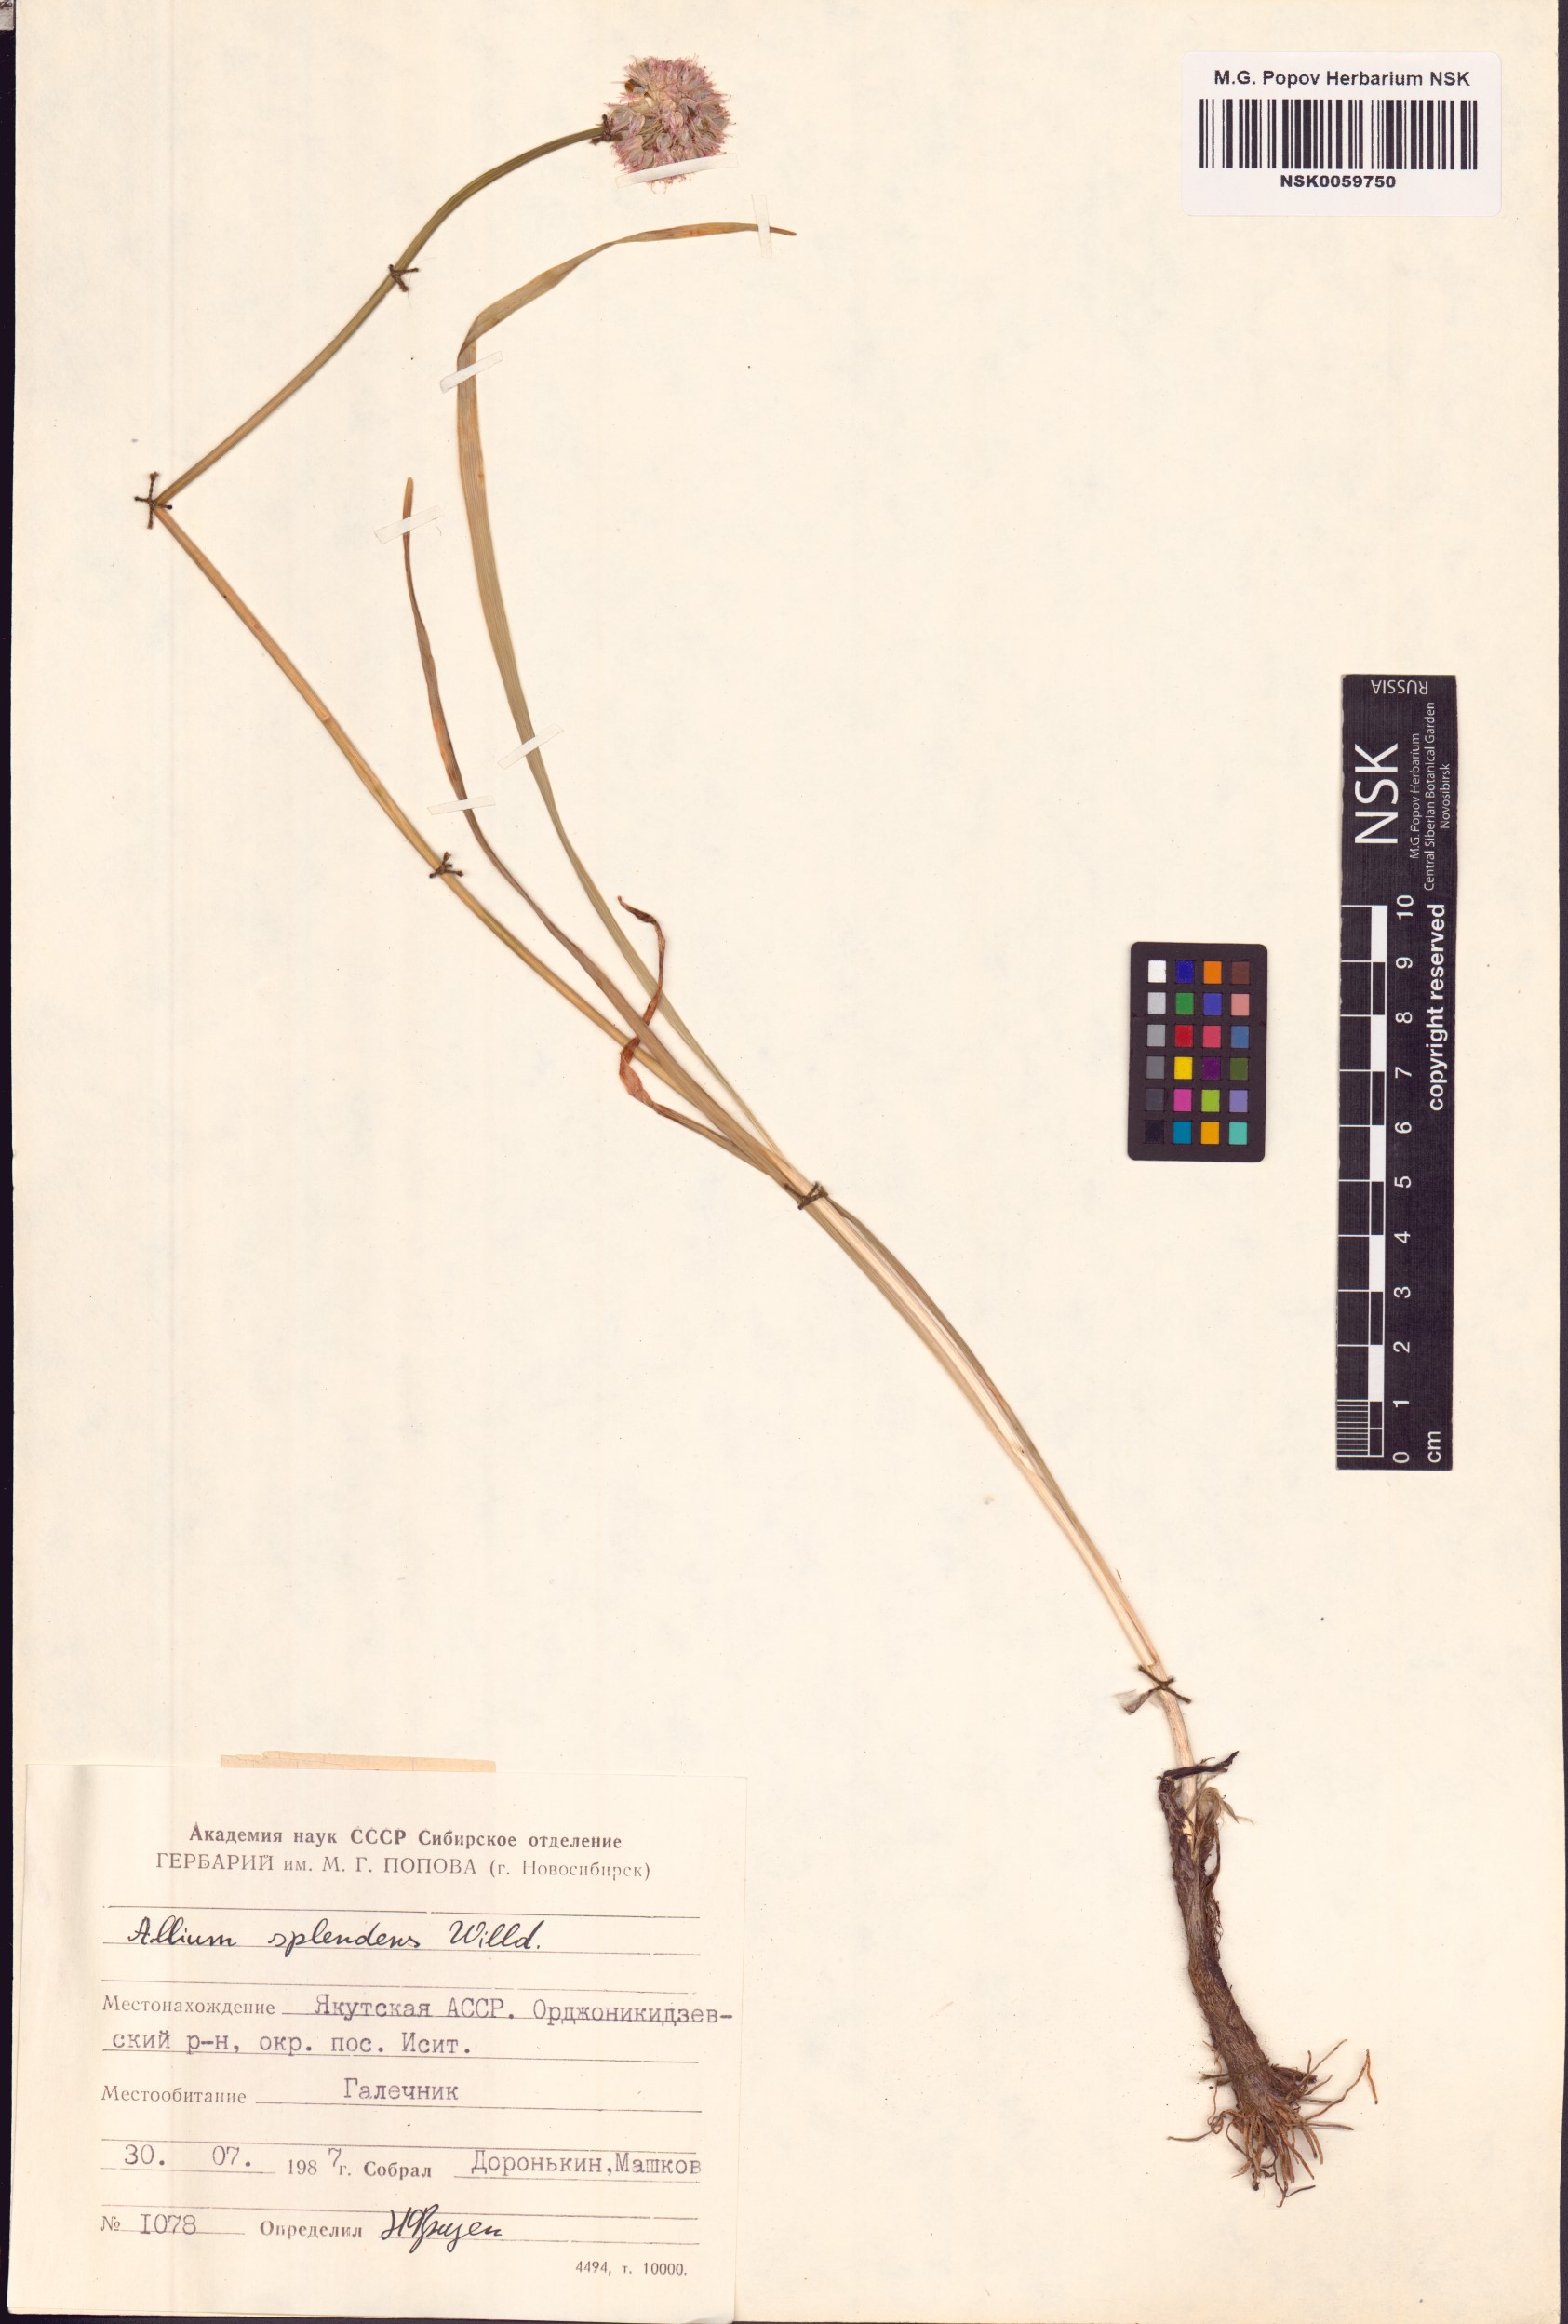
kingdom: Plantae
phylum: Tracheophyta
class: Liliopsida
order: Asparagales
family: Amaryllidaceae
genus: Allium
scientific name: Allium splendens
